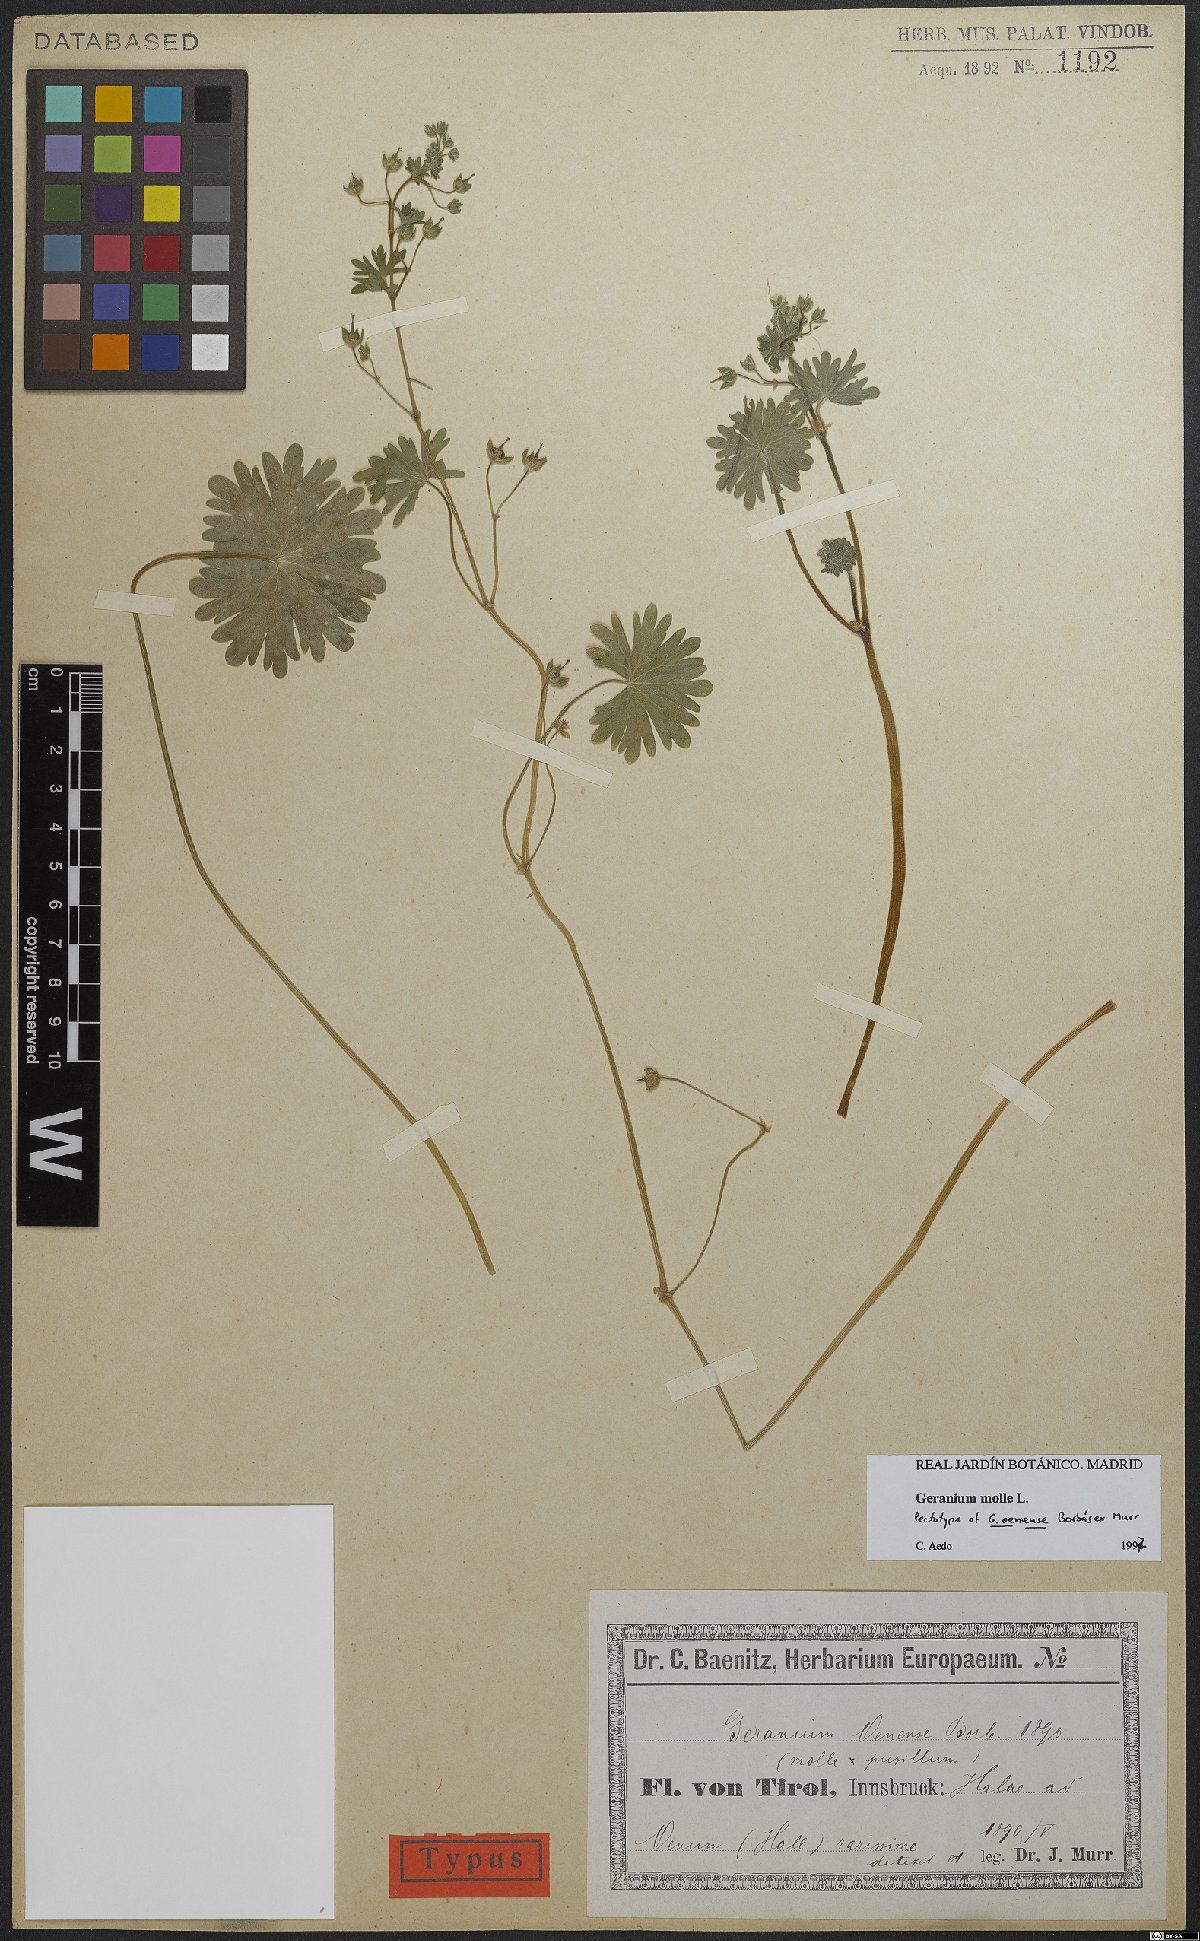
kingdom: Plantae
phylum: Tracheophyta
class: Magnoliopsida
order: Geraniales
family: Geraniaceae
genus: Geranium
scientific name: Geranium molle
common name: Dove's-foot crane's-bill
